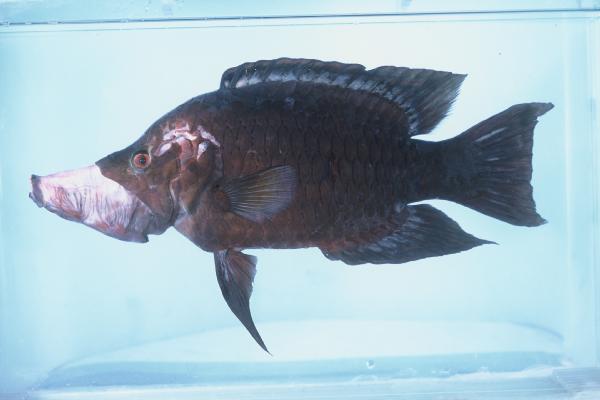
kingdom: Animalia
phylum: Chordata
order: Perciformes
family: Labridae
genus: Epibulus
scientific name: Epibulus insidiator
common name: Slingjaw wrasse
